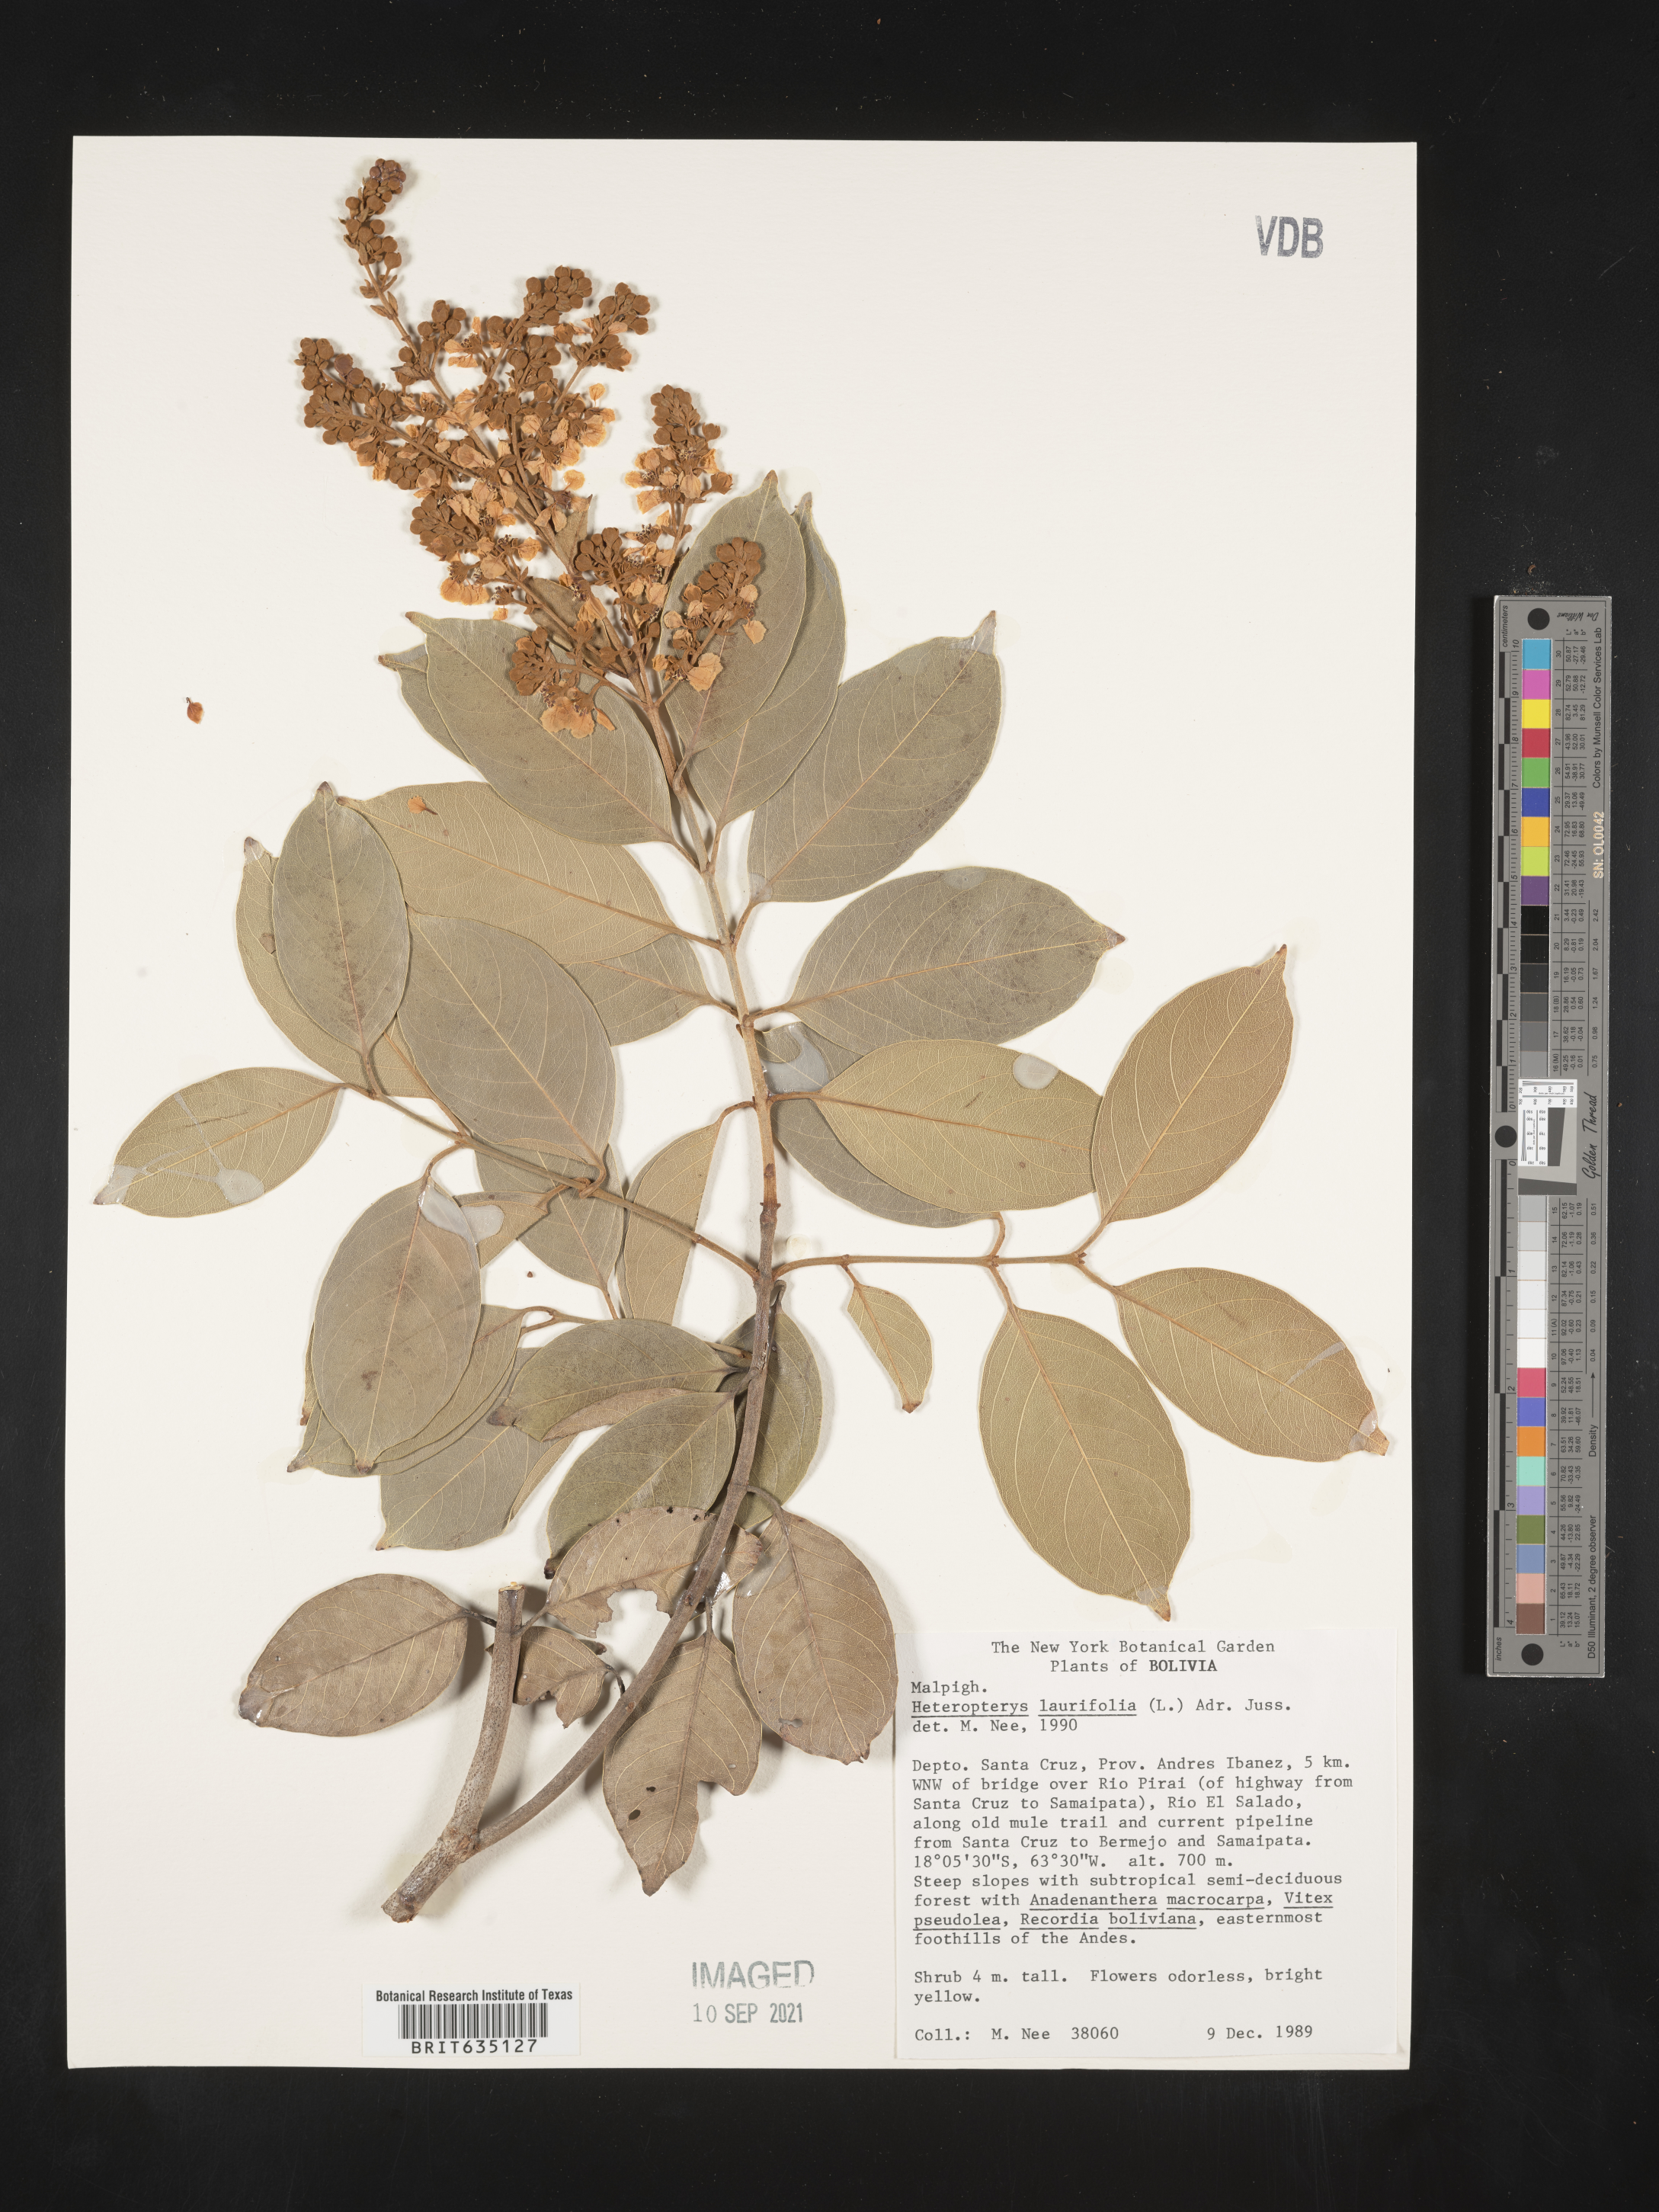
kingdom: Plantae
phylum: Tracheophyta
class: Polypodiopsida
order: Polypodiales
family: Pteridaceae
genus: Heteropteris
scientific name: Heteropteris
